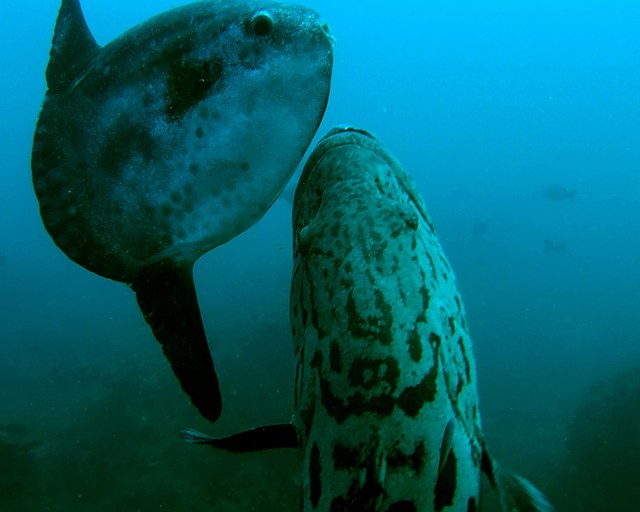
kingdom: Animalia
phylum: Chordata
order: Tetraodontiformes
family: Molidae
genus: Mola
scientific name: Mola mola
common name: Ocean sunfish
